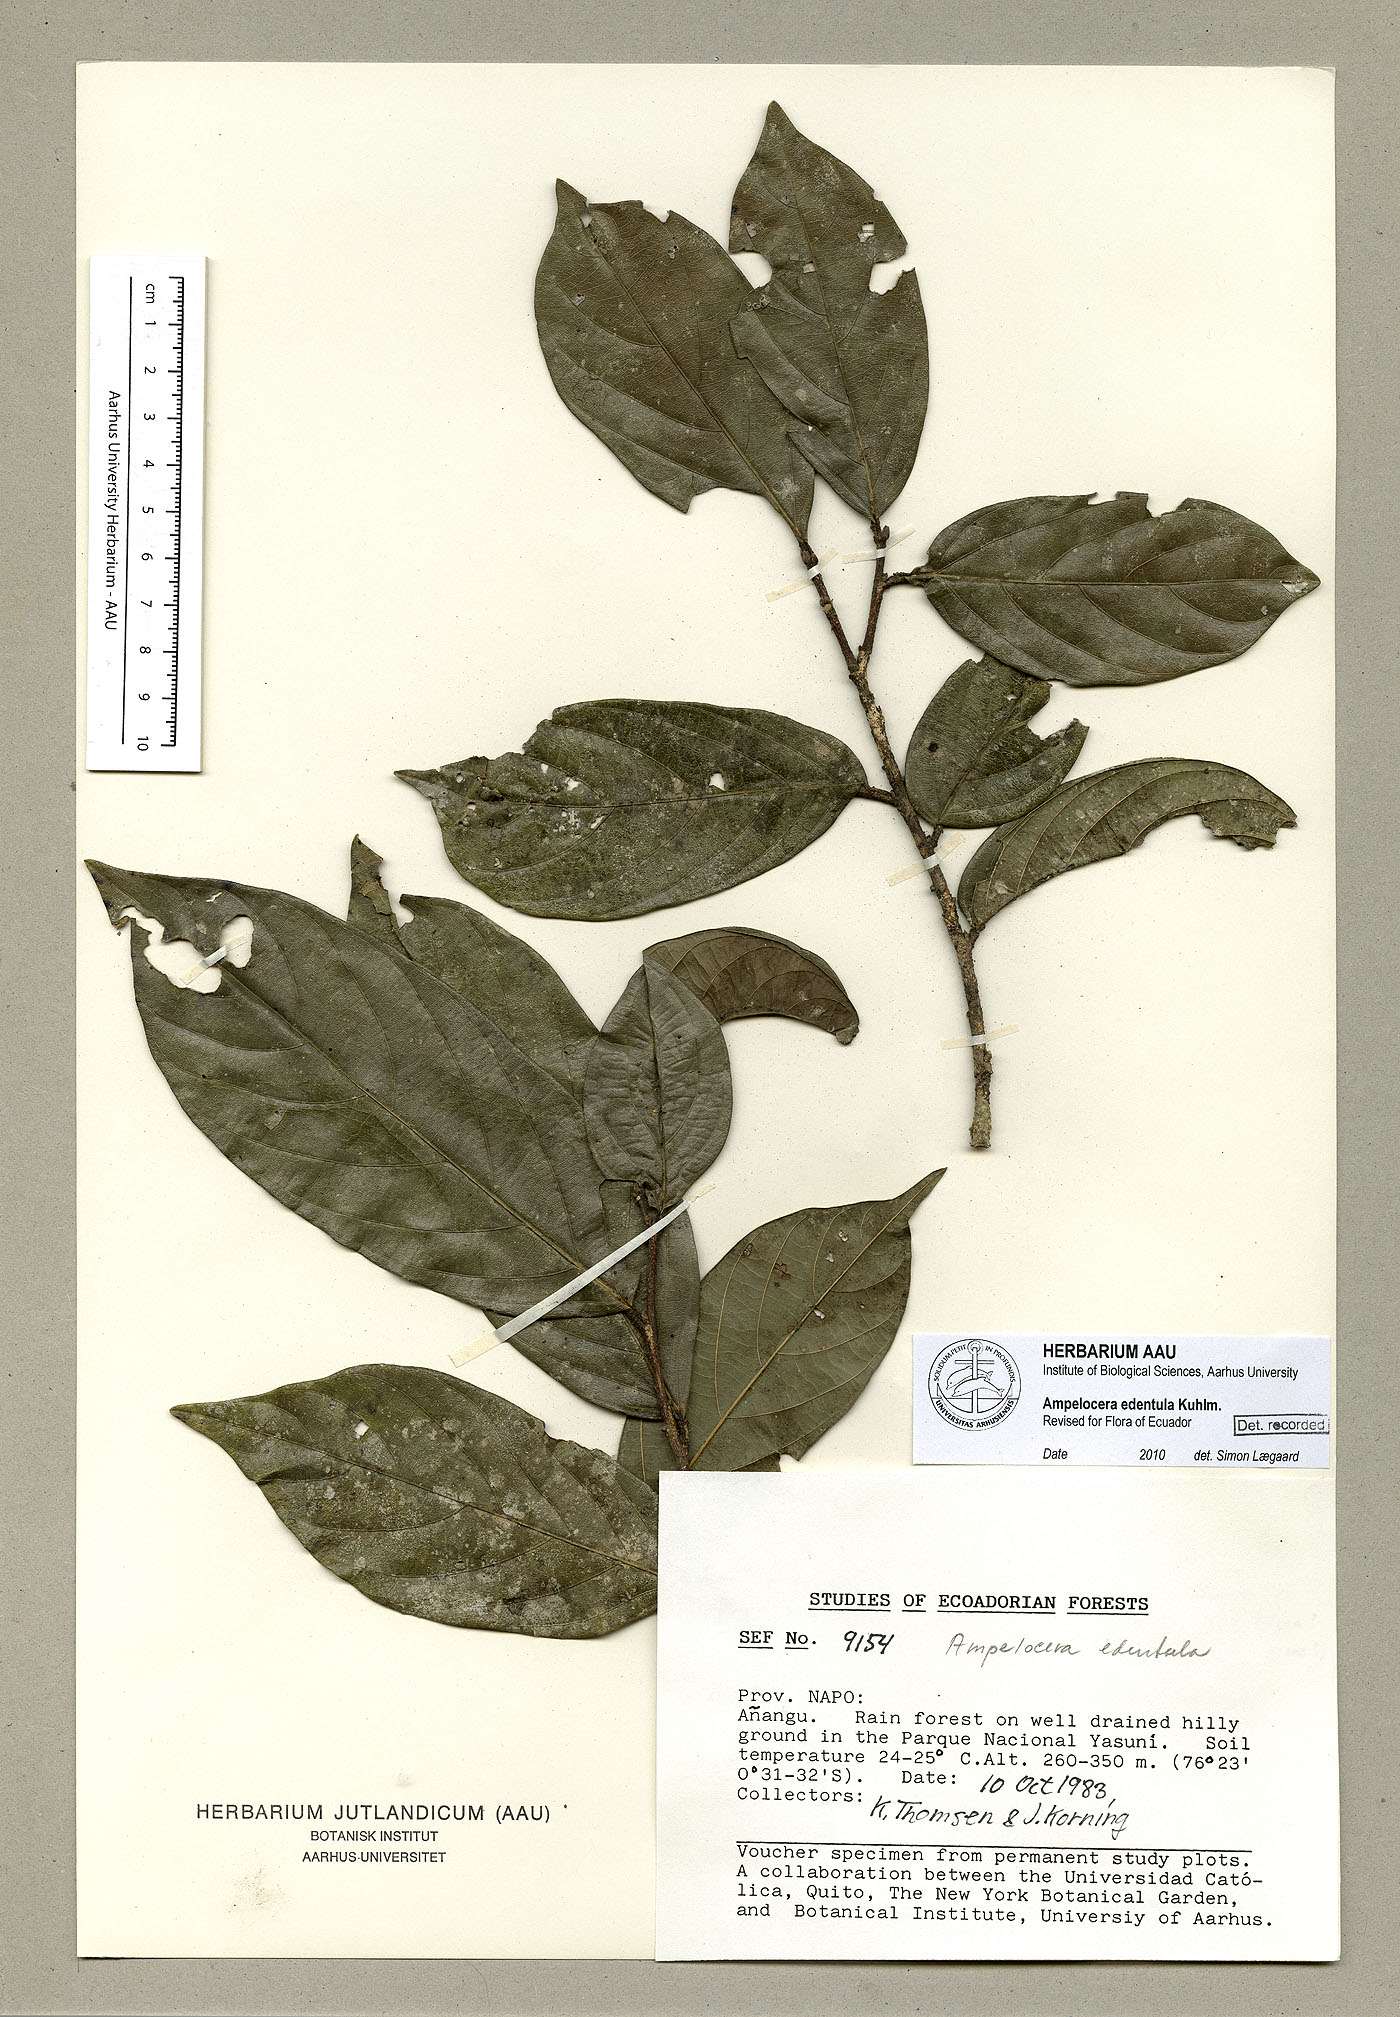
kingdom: Plantae
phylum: Tracheophyta
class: Magnoliopsida
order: Rosales
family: Cannabaceae
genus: Ampelocera
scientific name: Ampelocera edentula
